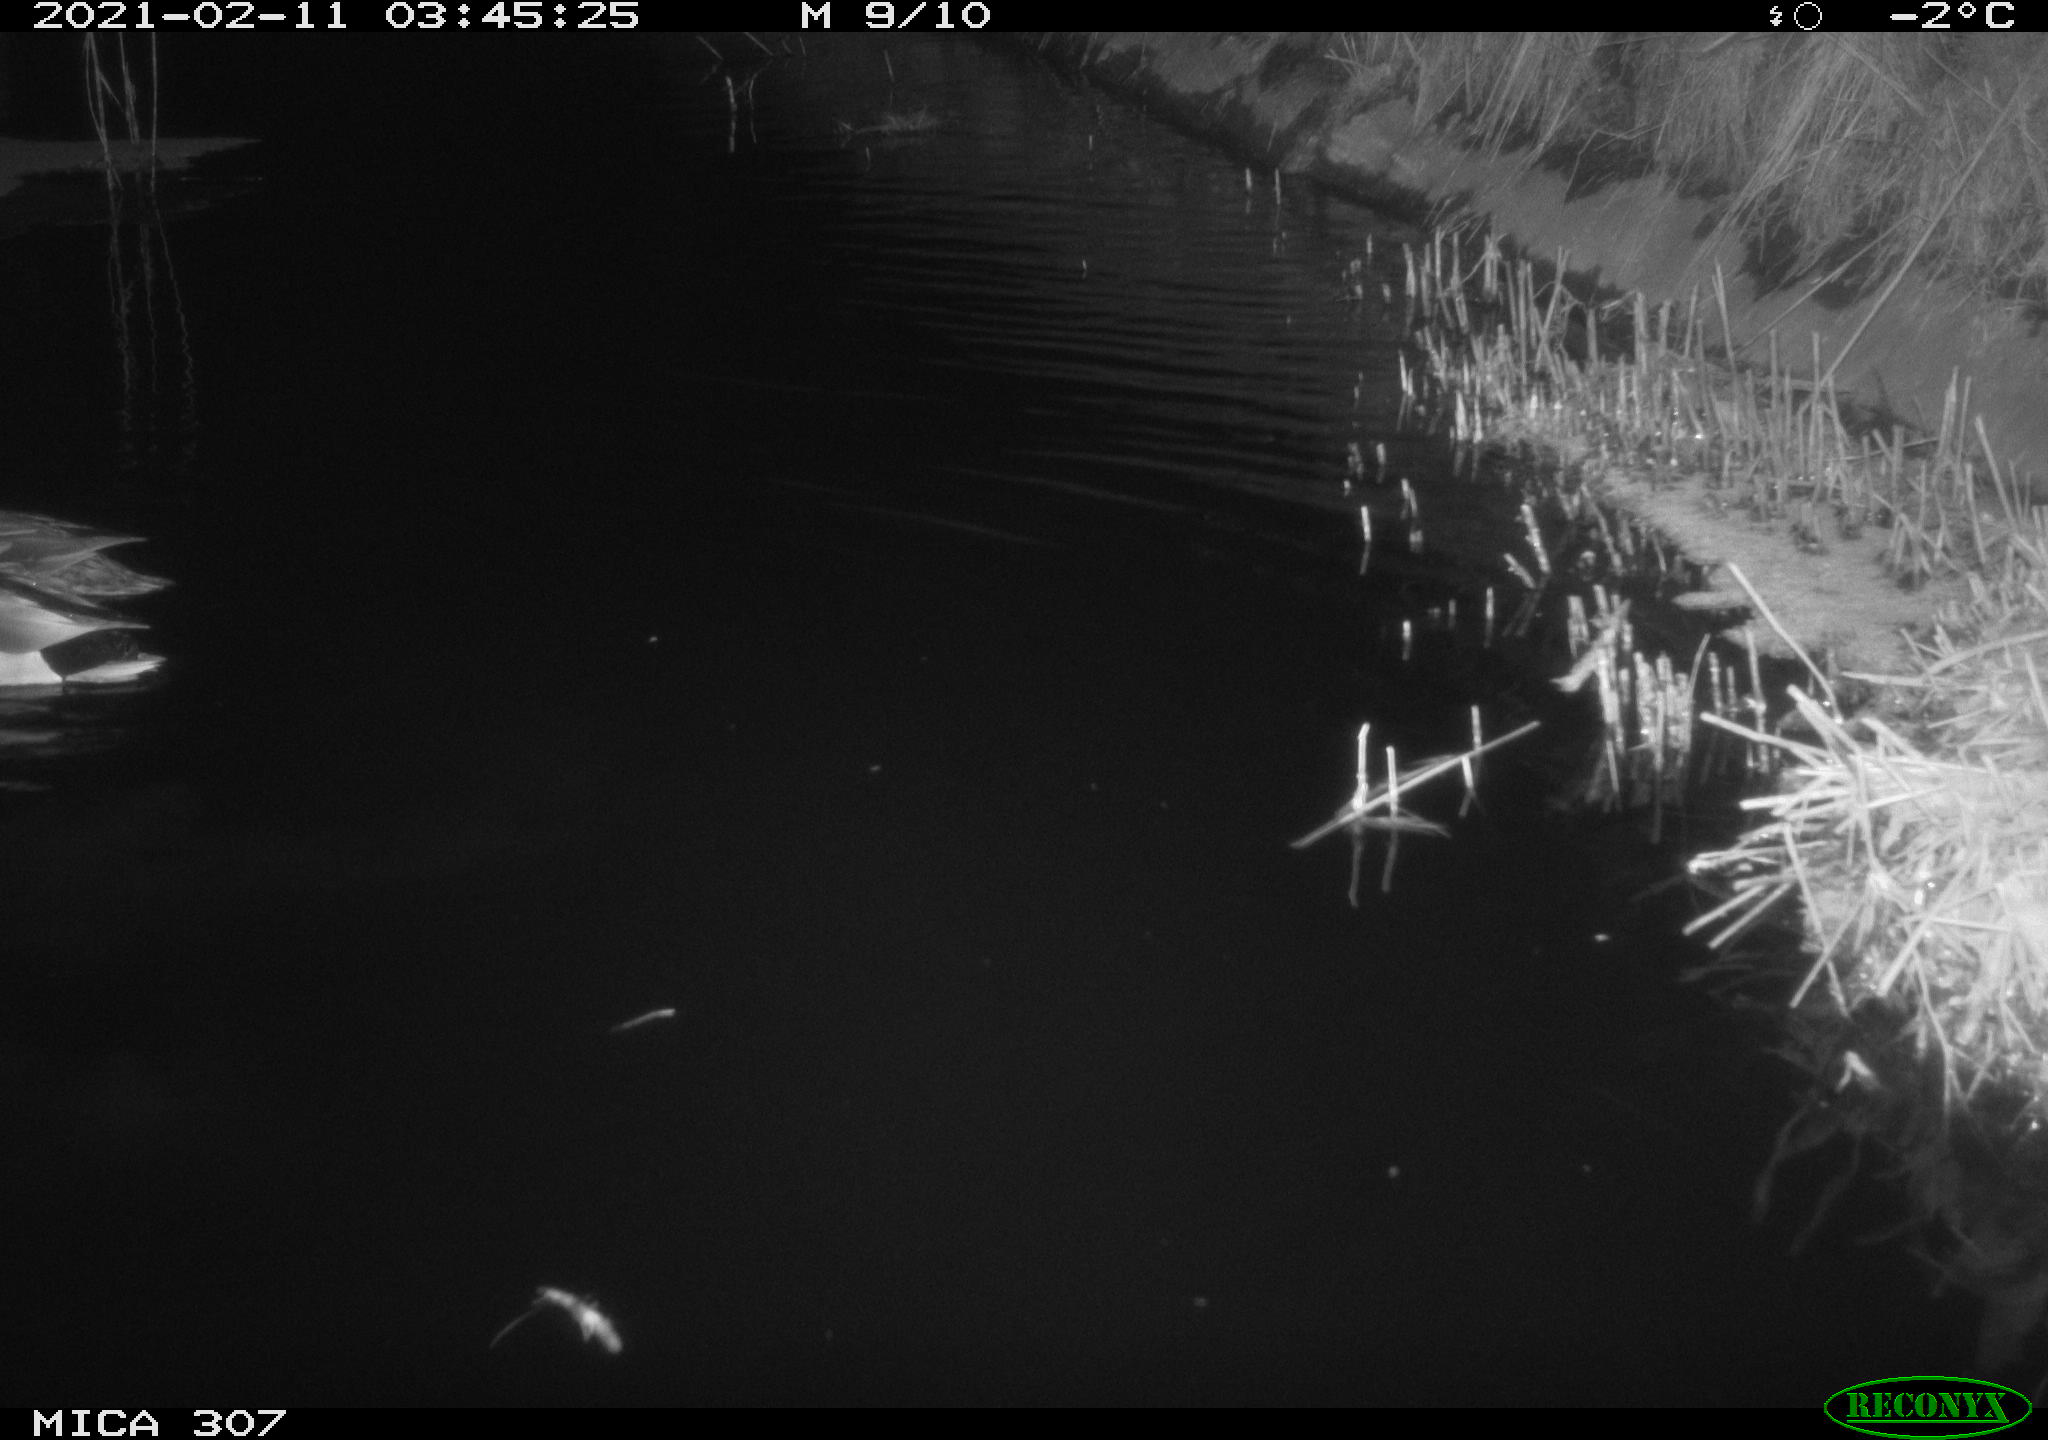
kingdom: Animalia
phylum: Chordata
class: Aves
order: Anseriformes
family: Anatidae
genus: Anas
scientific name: Anas platyrhynchos
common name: Mallard
